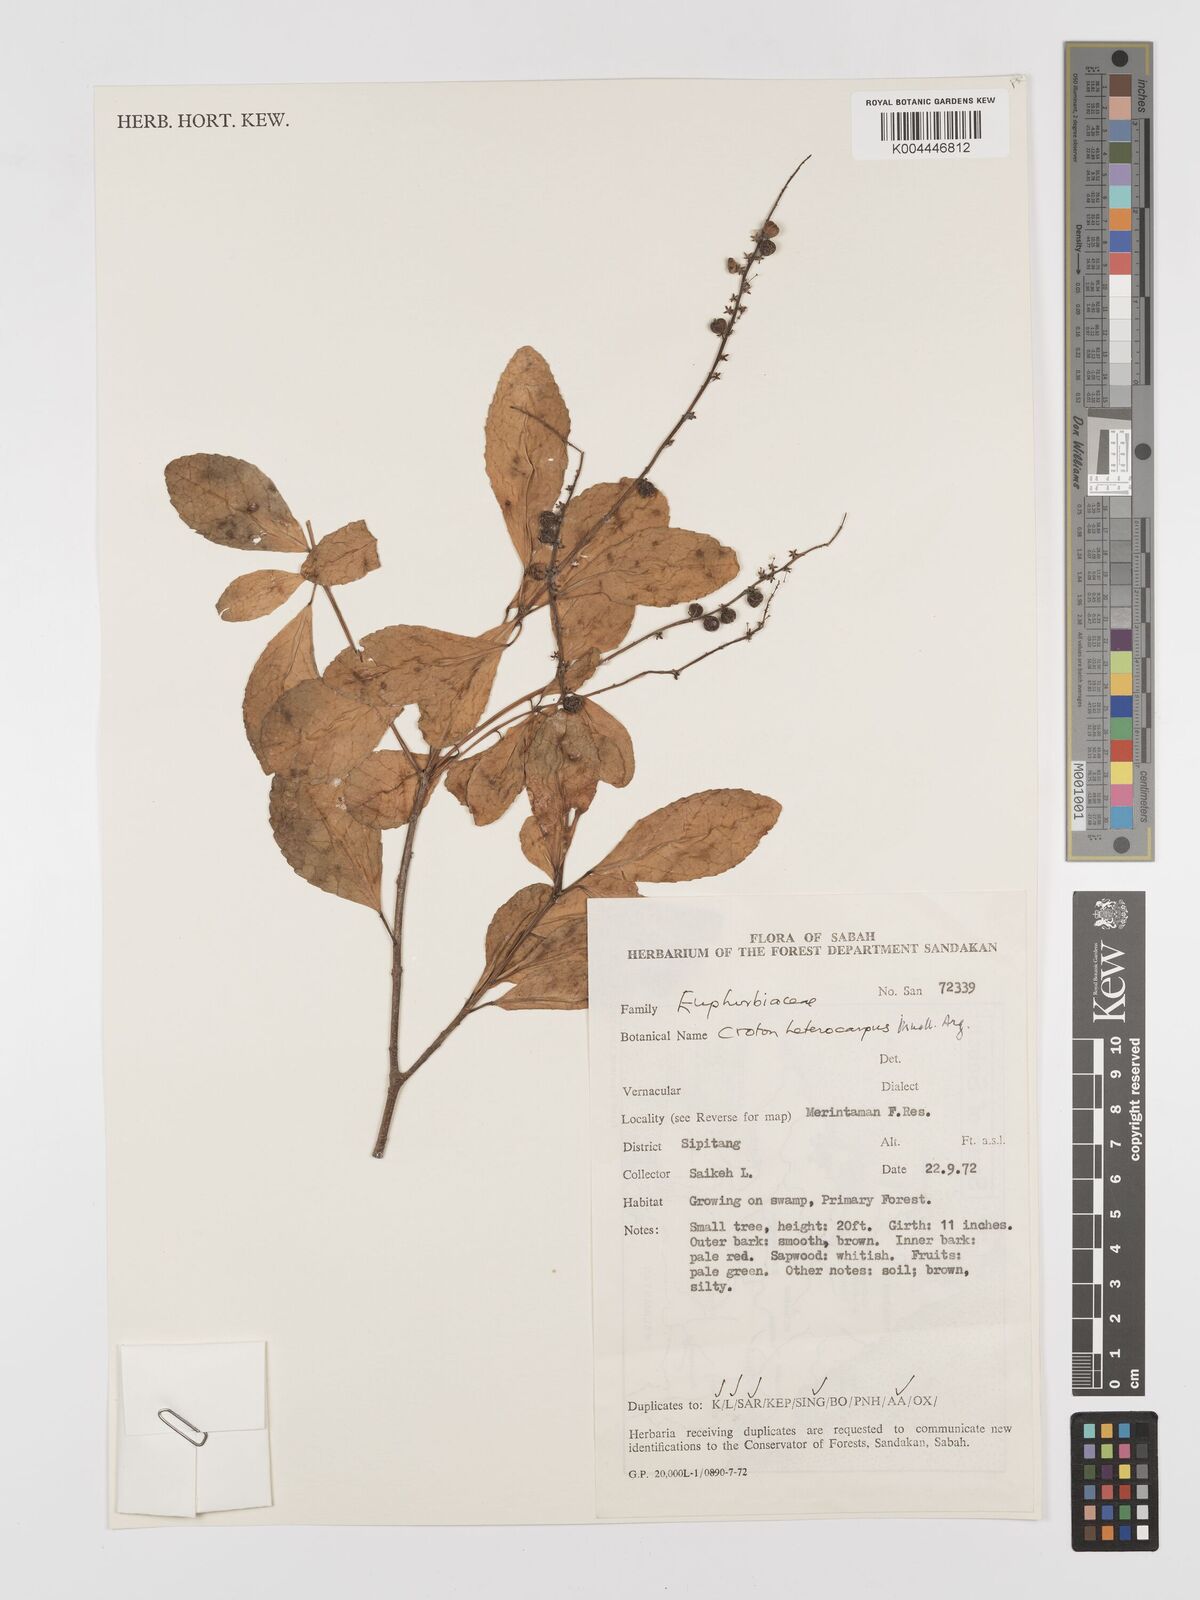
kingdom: Plantae
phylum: Tracheophyta
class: Magnoliopsida
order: Malpighiales
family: Euphorbiaceae
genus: Croton
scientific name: Croton heterocarpus
